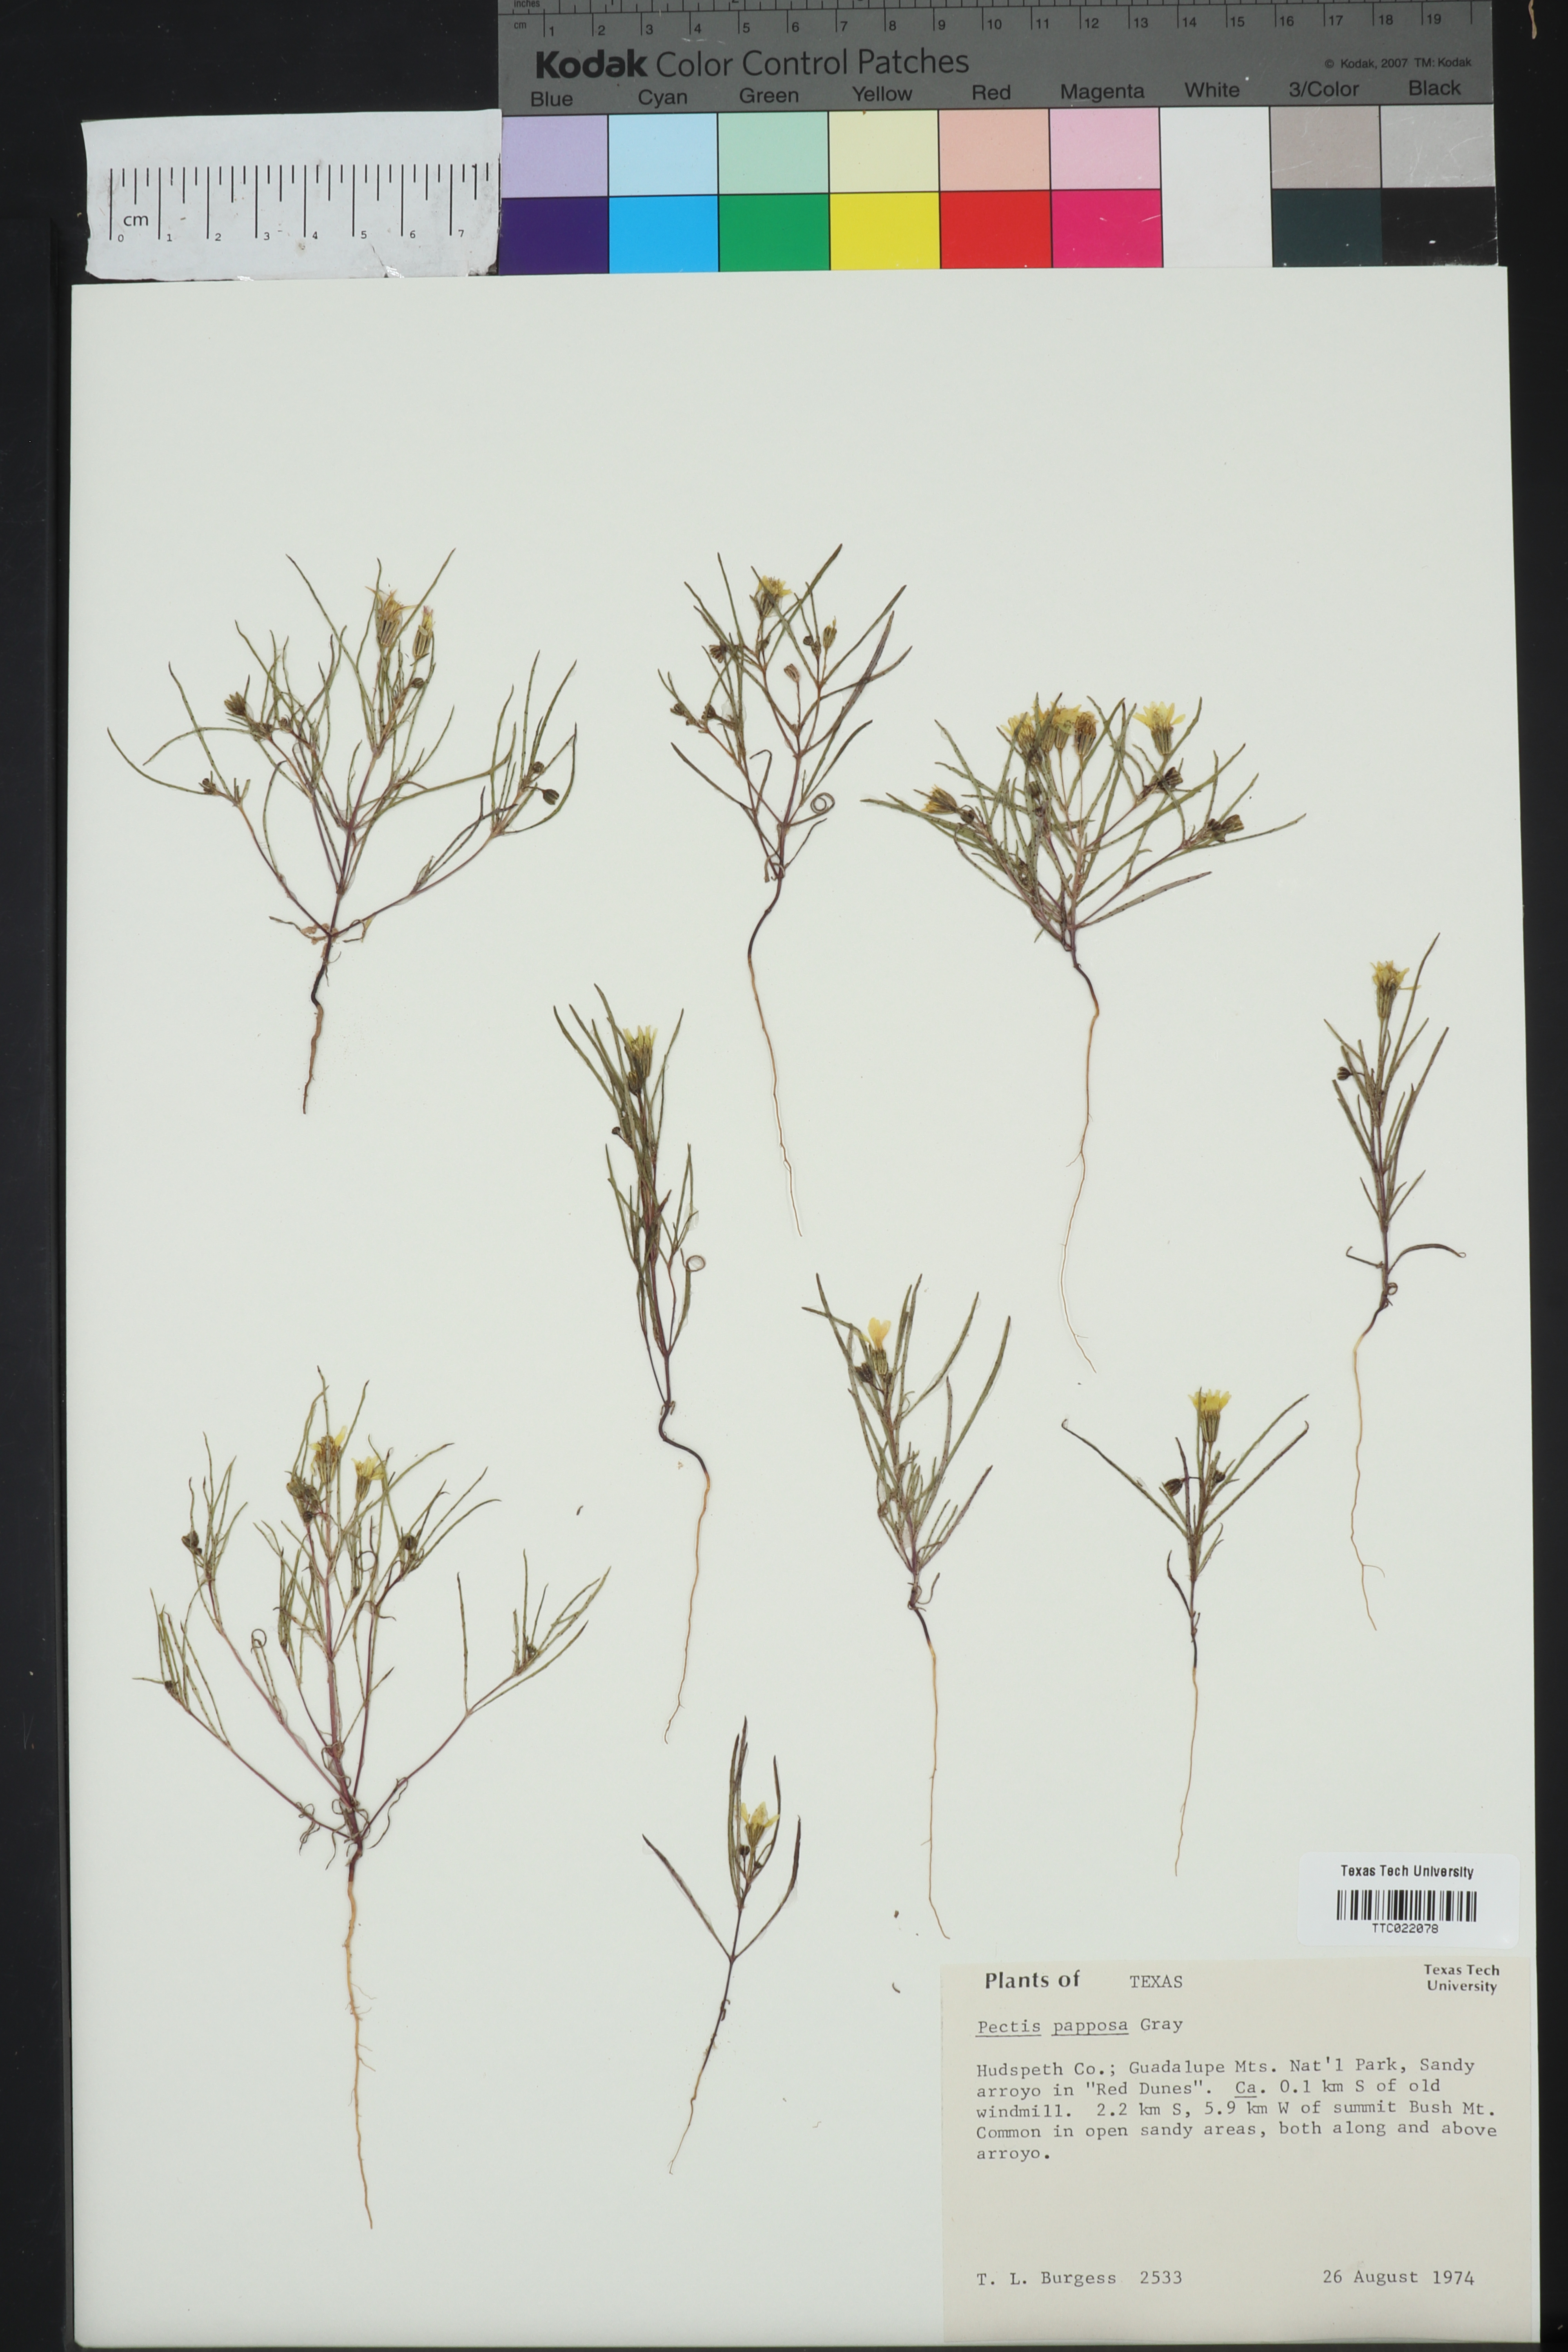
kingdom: Plantae
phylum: Tracheophyta
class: Magnoliopsida
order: Asterales
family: Asteraceae
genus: Pectis
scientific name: Pectis papposa
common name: Many-bristle chinchweed
